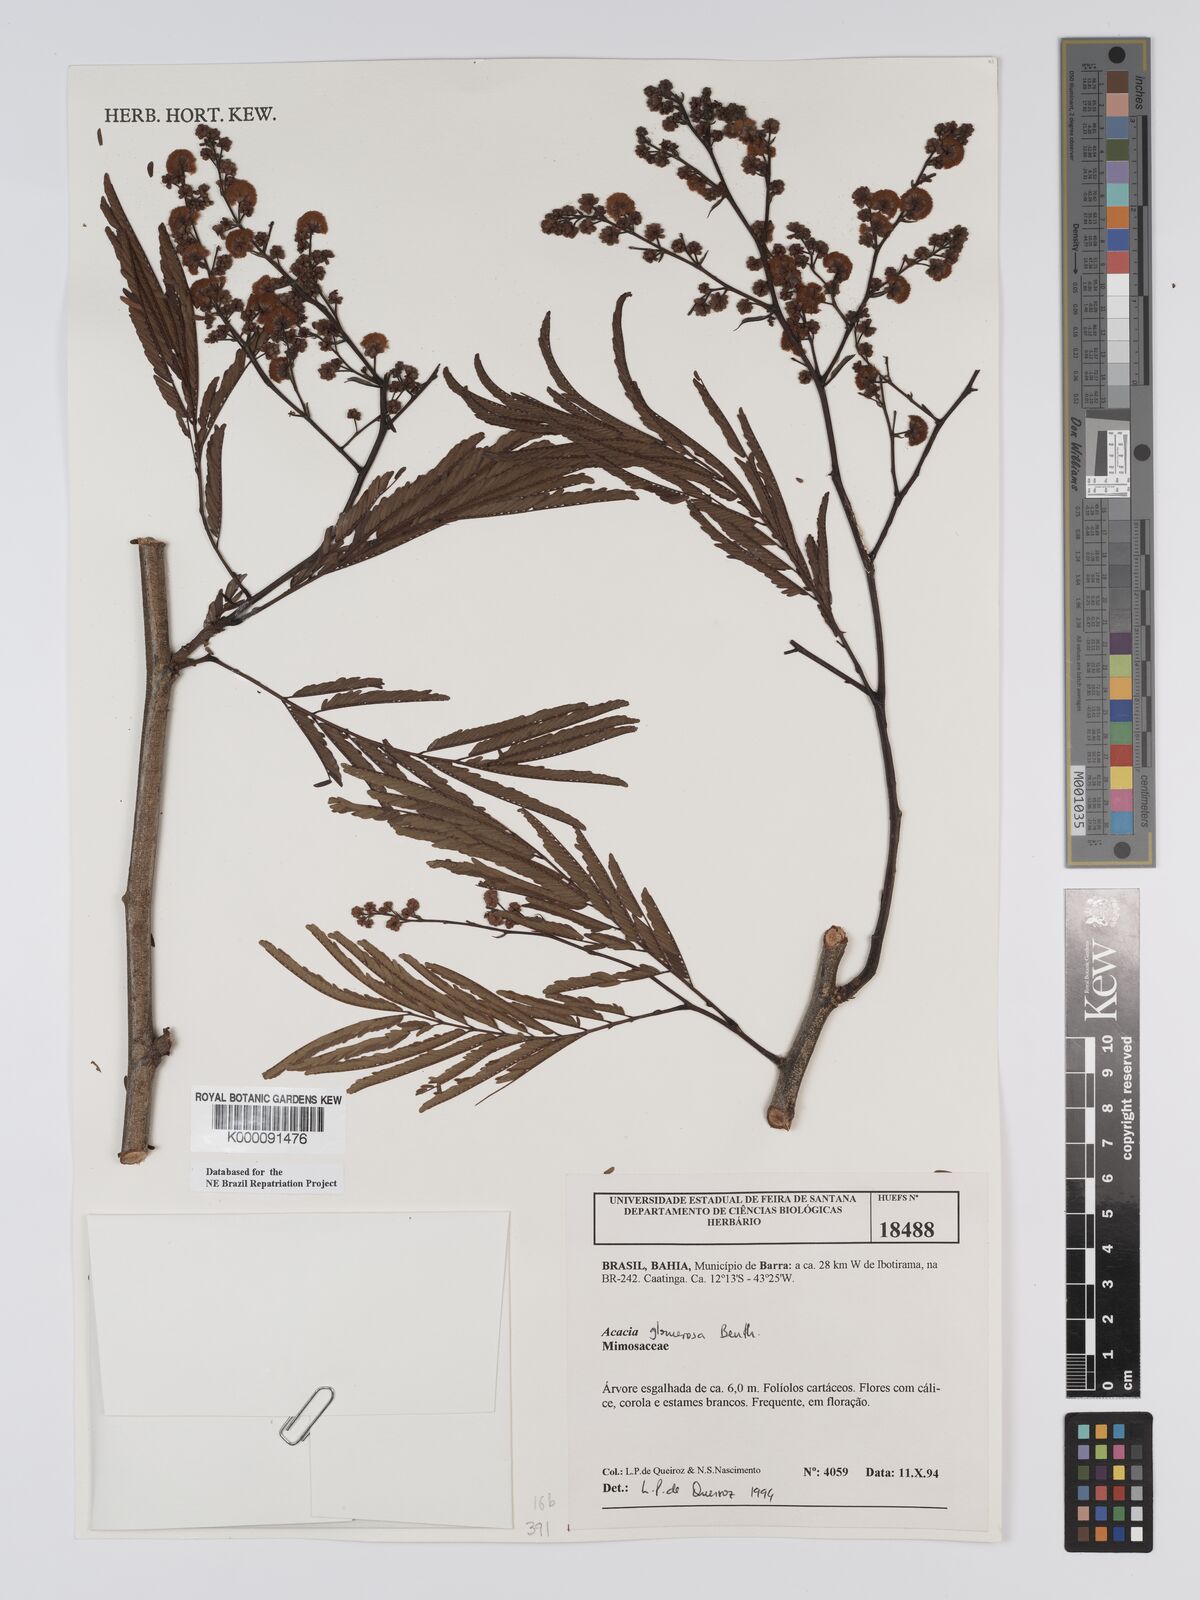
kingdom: Plantae
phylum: Tracheophyta
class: Magnoliopsida
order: Fabales
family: Fabaceae
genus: Senegalia
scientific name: Senegalia polyphylla
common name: White-tamarind
